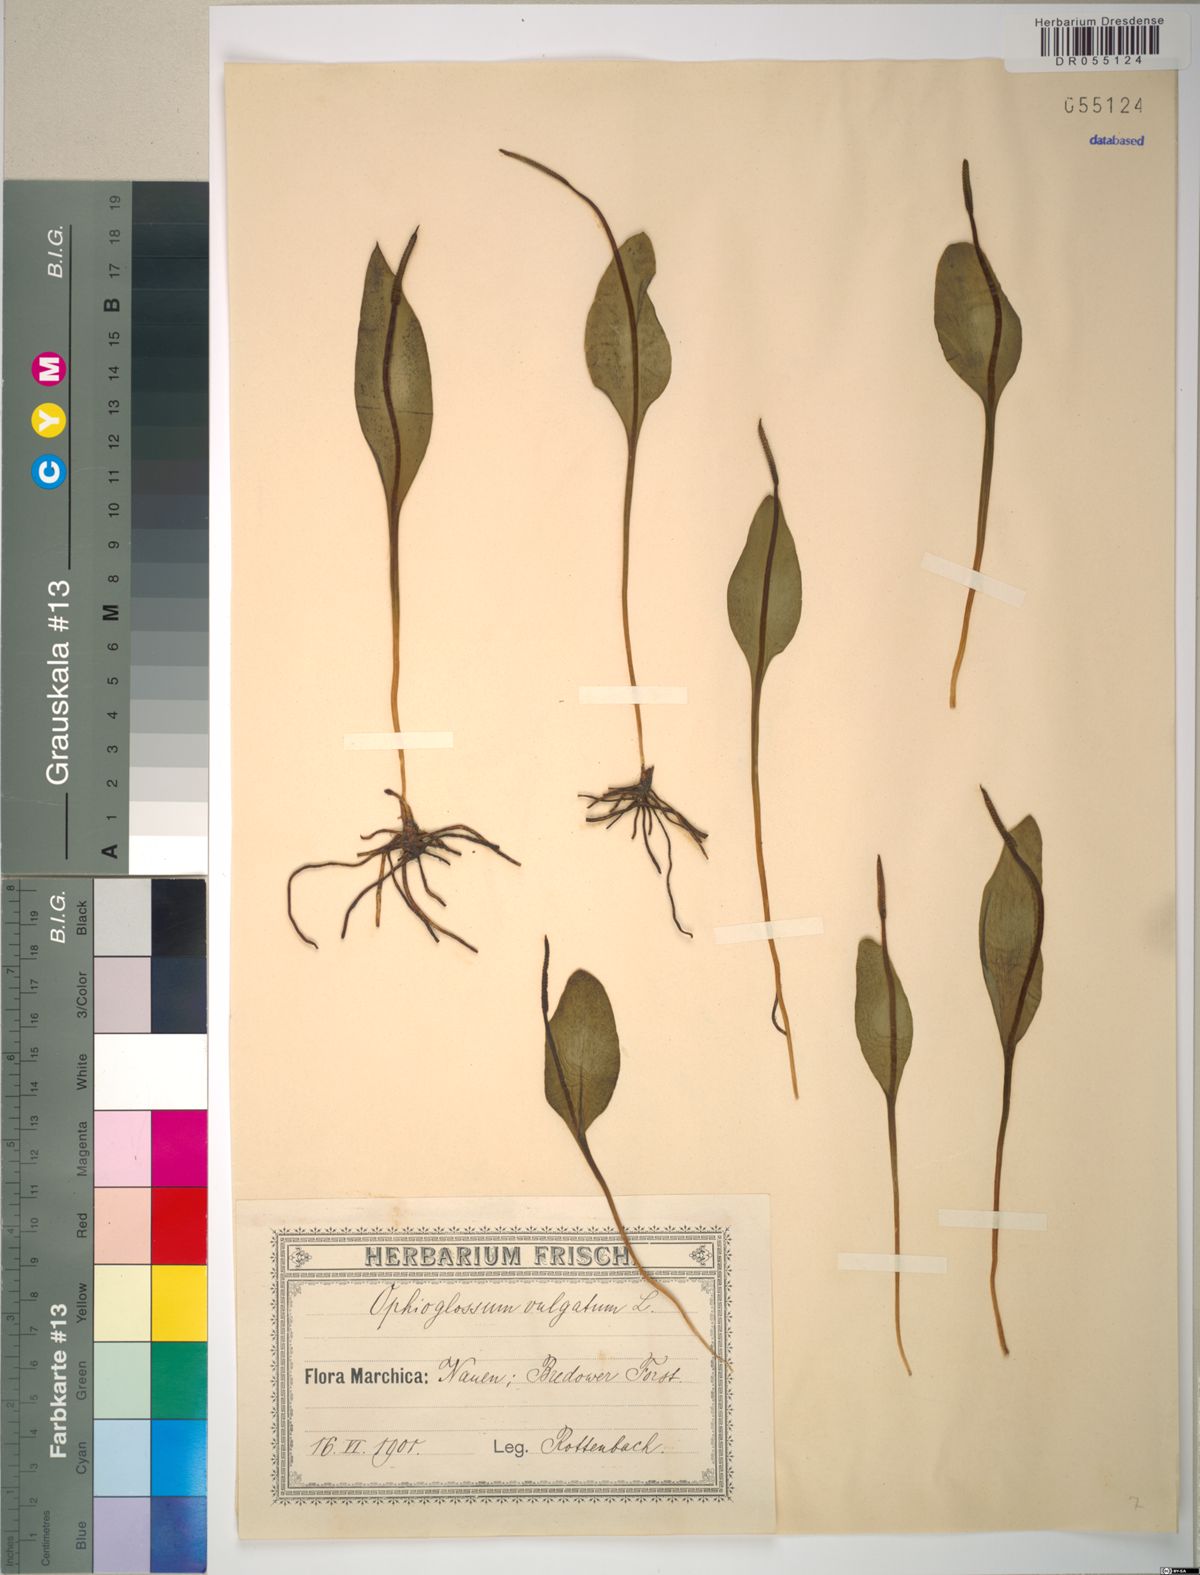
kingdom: Plantae
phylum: Tracheophyta
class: Polypodiopsida
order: Ophioglossales
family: Ophioglossaceae
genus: Ophioglossum
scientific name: Ophioglossum vulgatum
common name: Adder's-tongue
